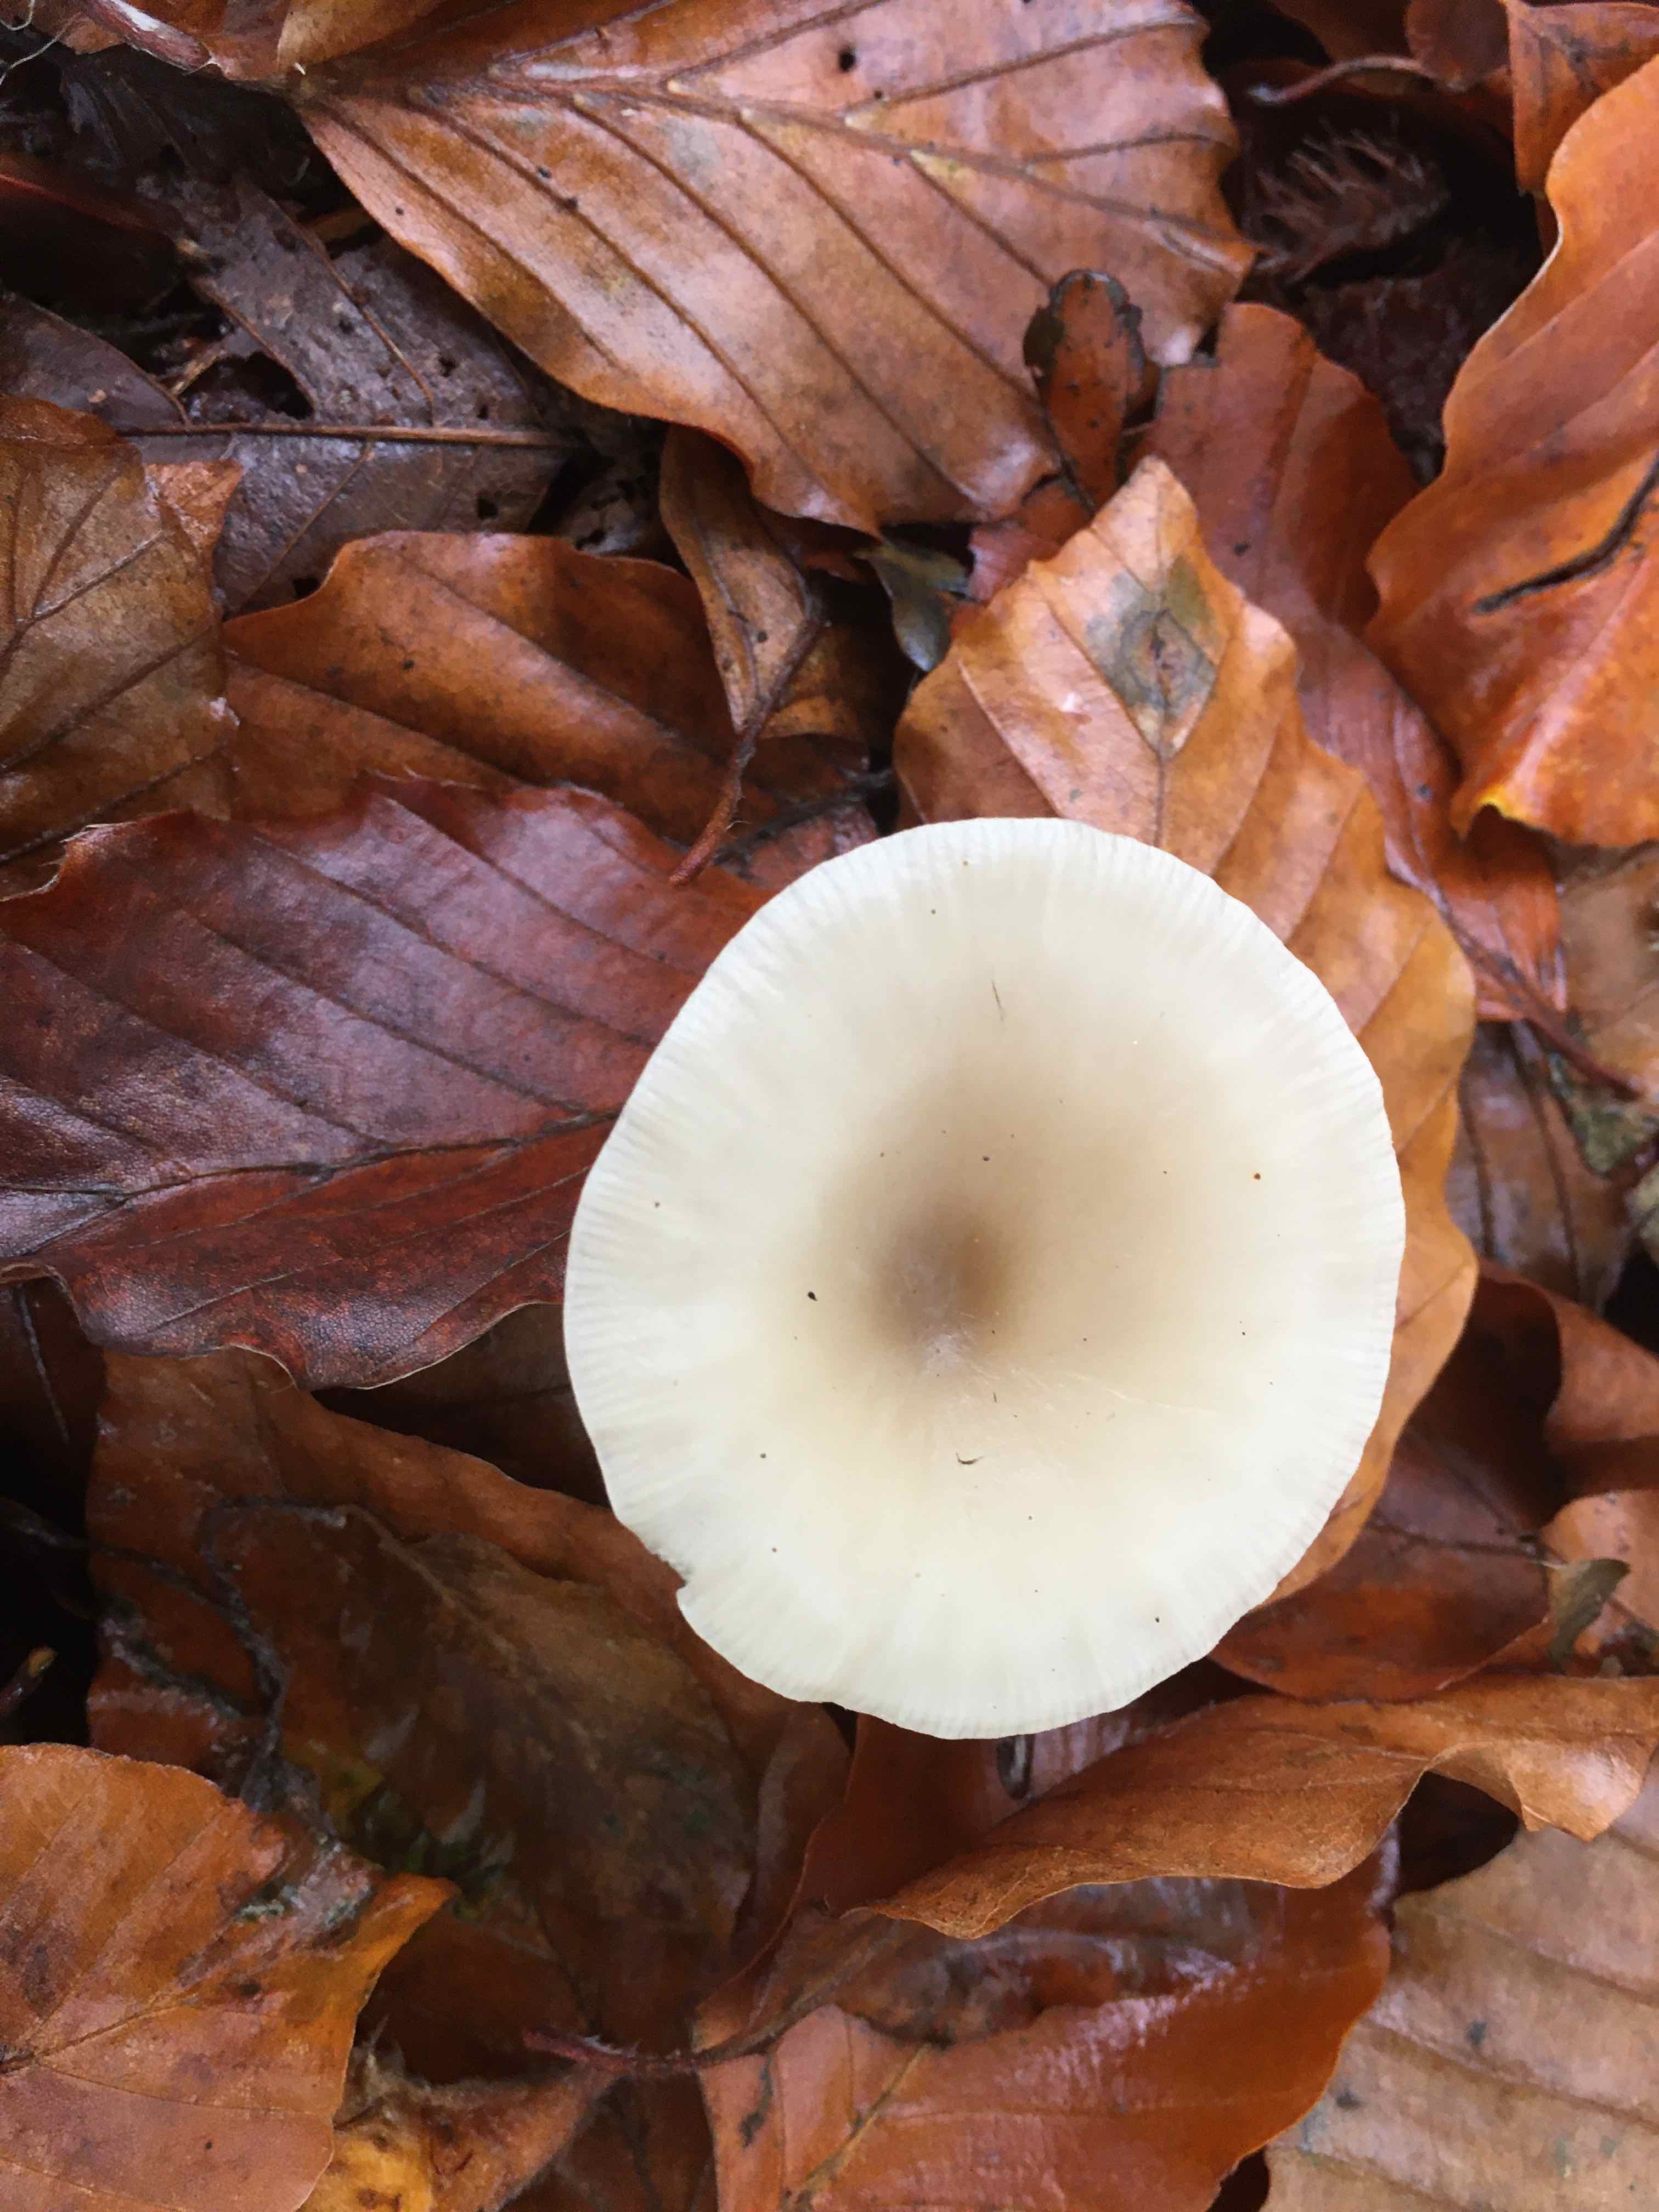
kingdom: Fungi
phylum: Basidiomycota
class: Agaricomycetes
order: Agaricales
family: Tricholomataceae
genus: Clitocybe
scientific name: Clitocybe
